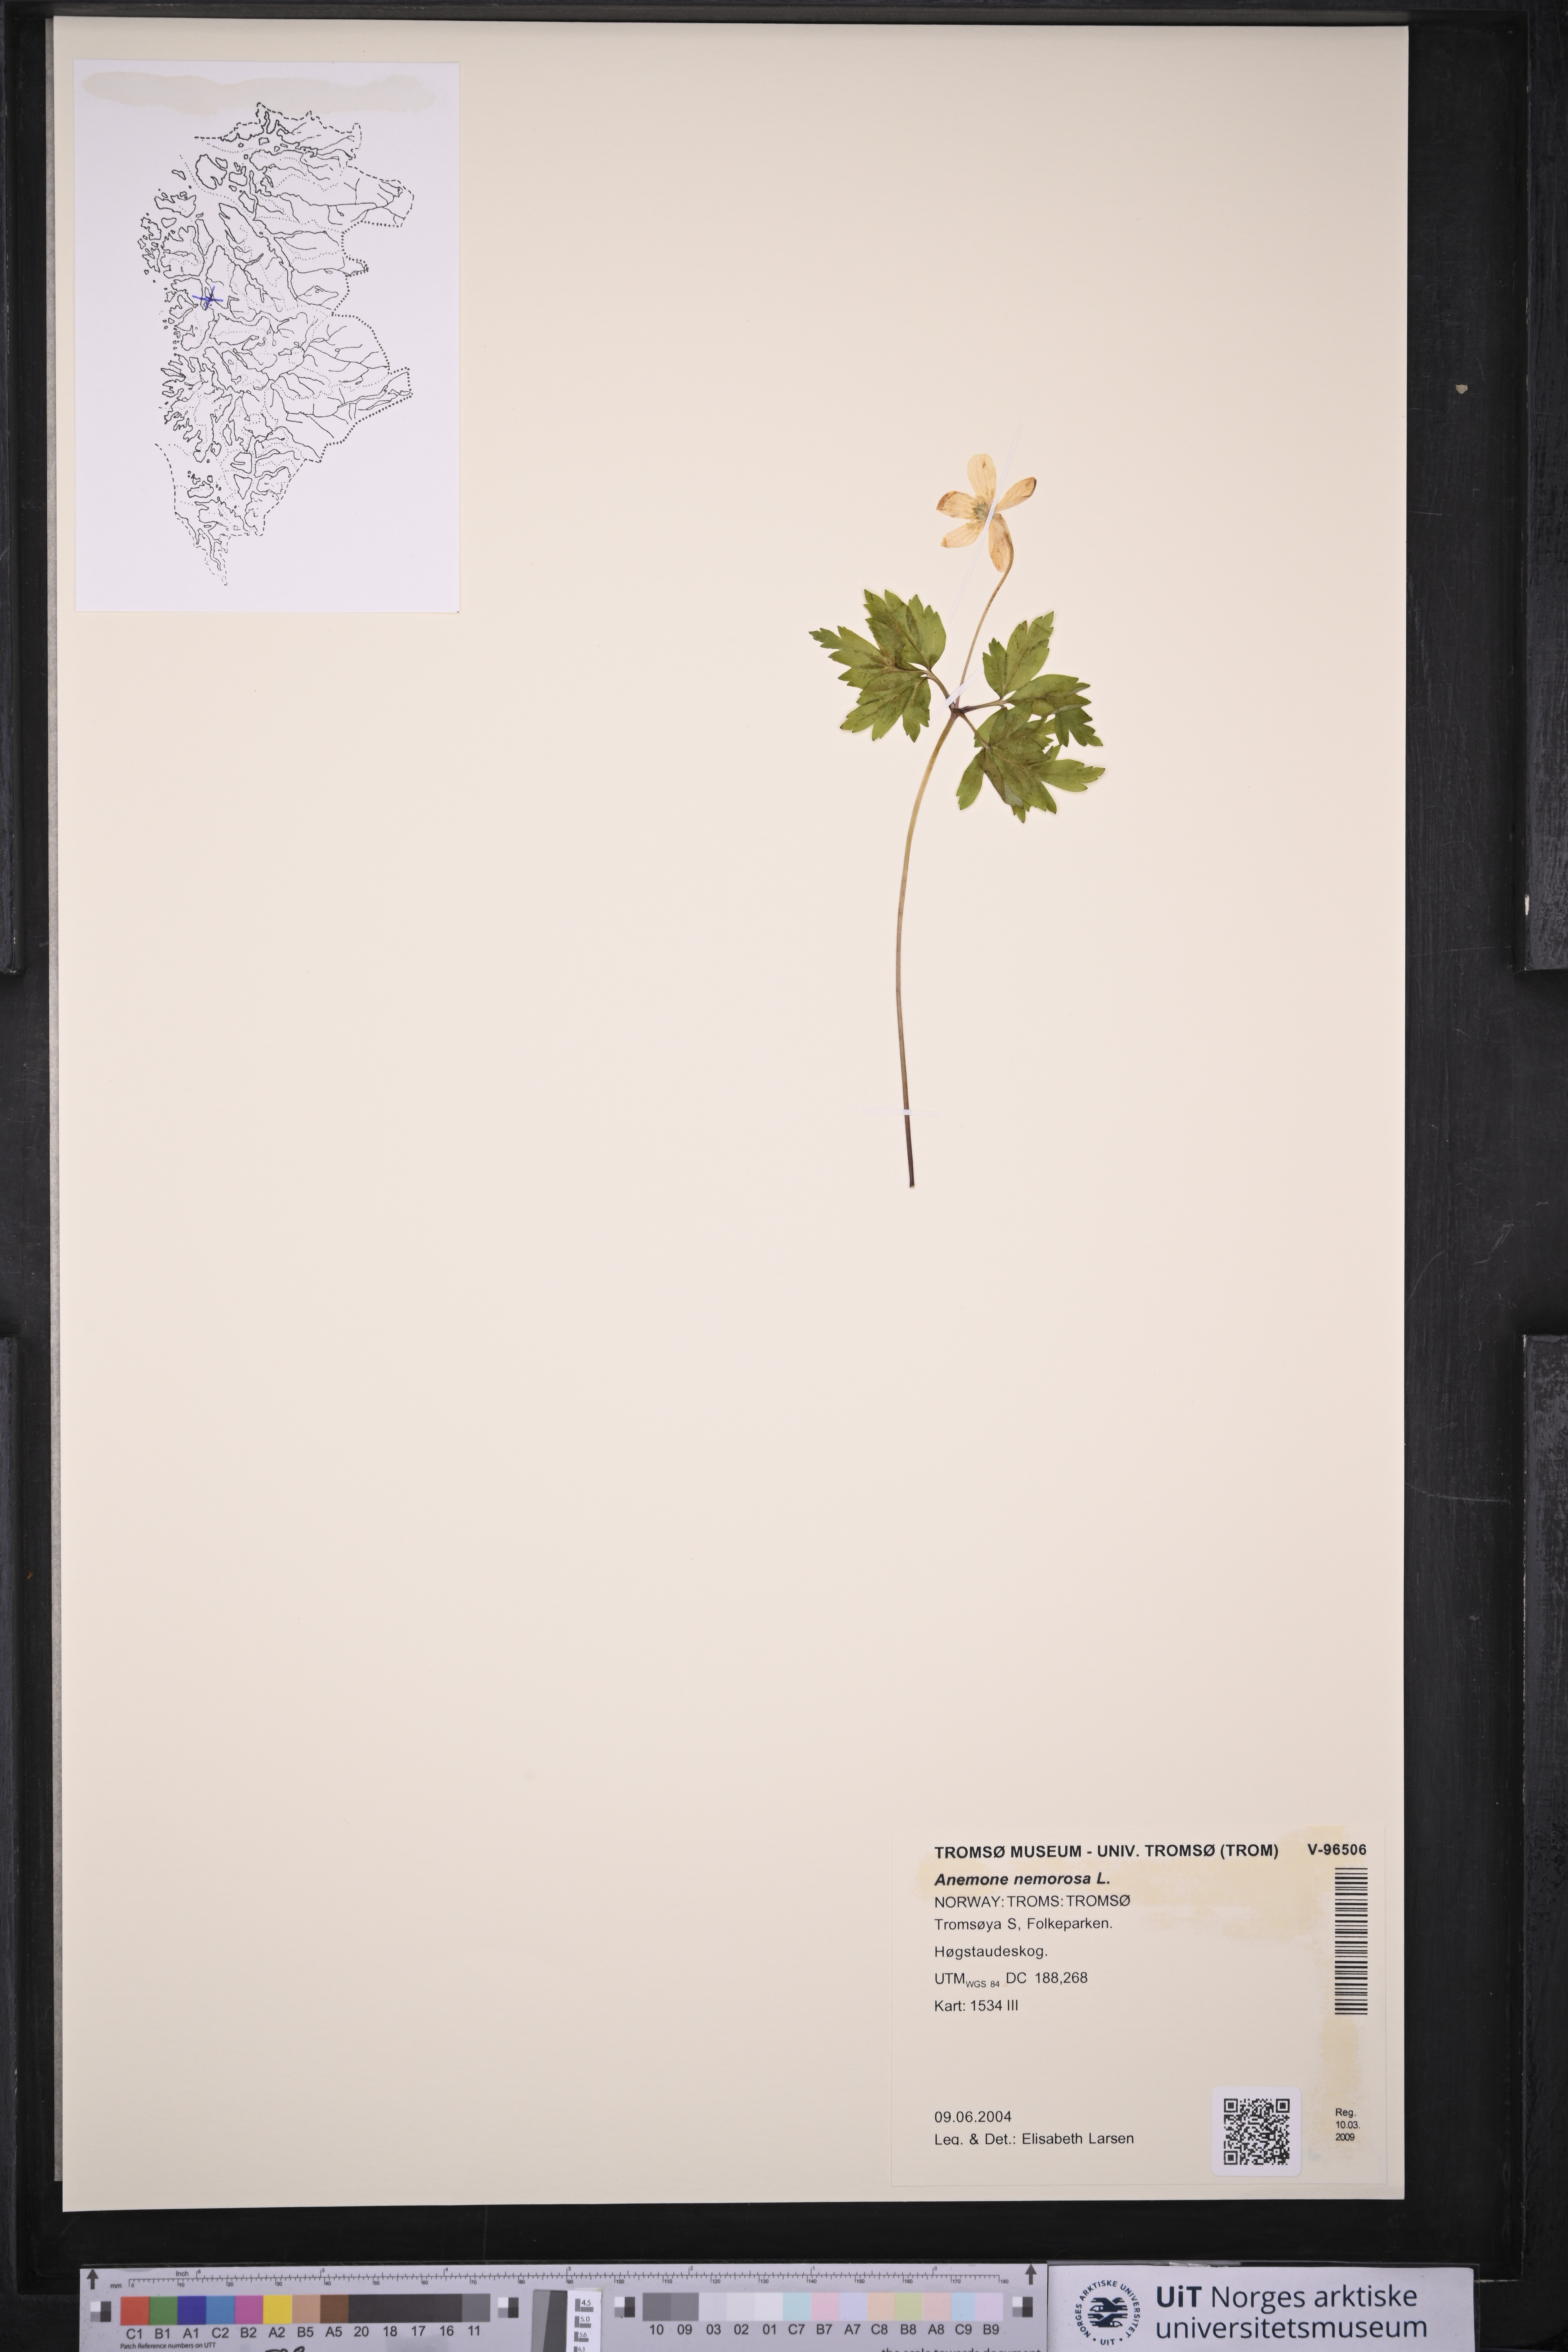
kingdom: Plantae
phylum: Tracheophyta
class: Magnoliopsida
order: Ranunculales
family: Ranunculaceae
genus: Anemone
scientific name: Anemone nemorosa
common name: Wood anemone
